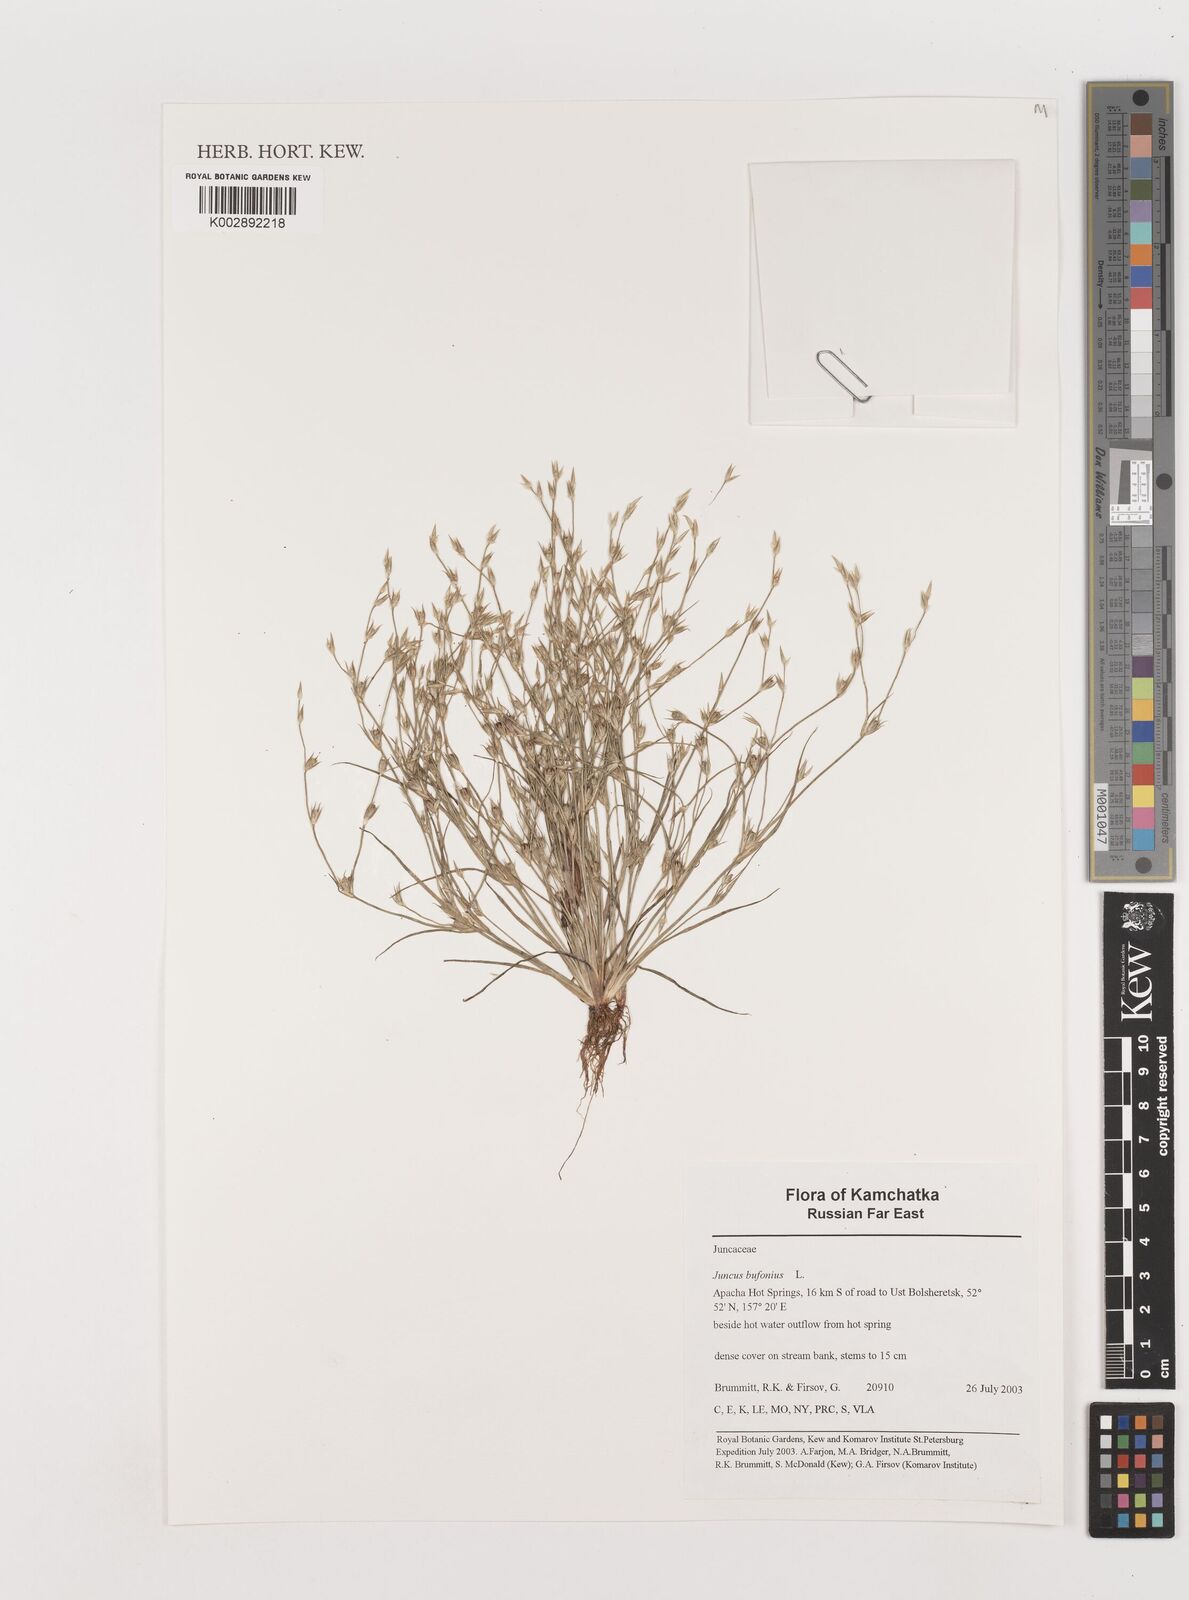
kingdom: Plantae
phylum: Tracheophyta
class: Liliopsida
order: Poales
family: Juncaceae
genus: Juncus
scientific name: Juncus bufonius
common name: Toad rush
